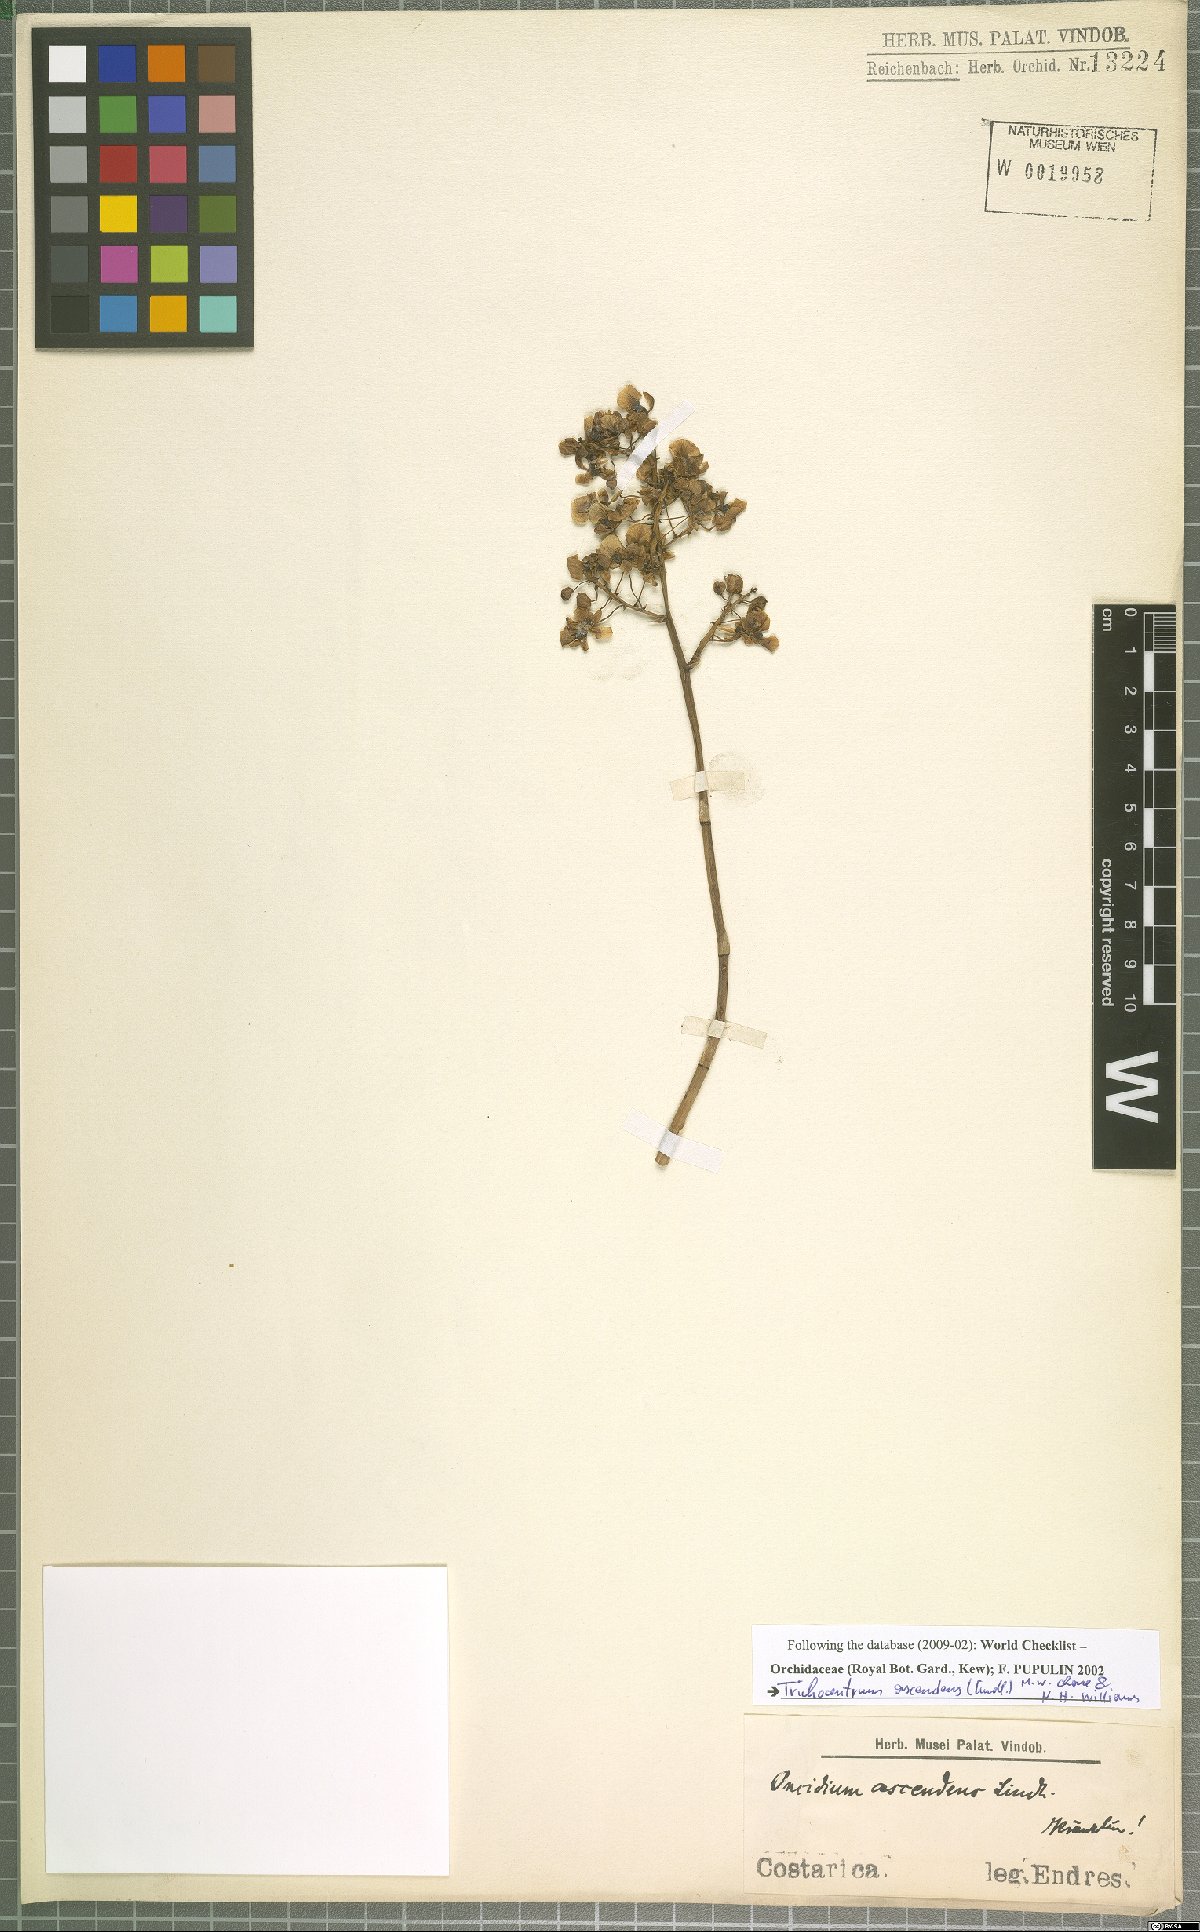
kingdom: Plantae
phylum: Tracheophyta
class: Liliopsida
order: Asparagales
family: Orchidaceae
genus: Trichocentrum
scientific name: Trichocentrum ascendens
